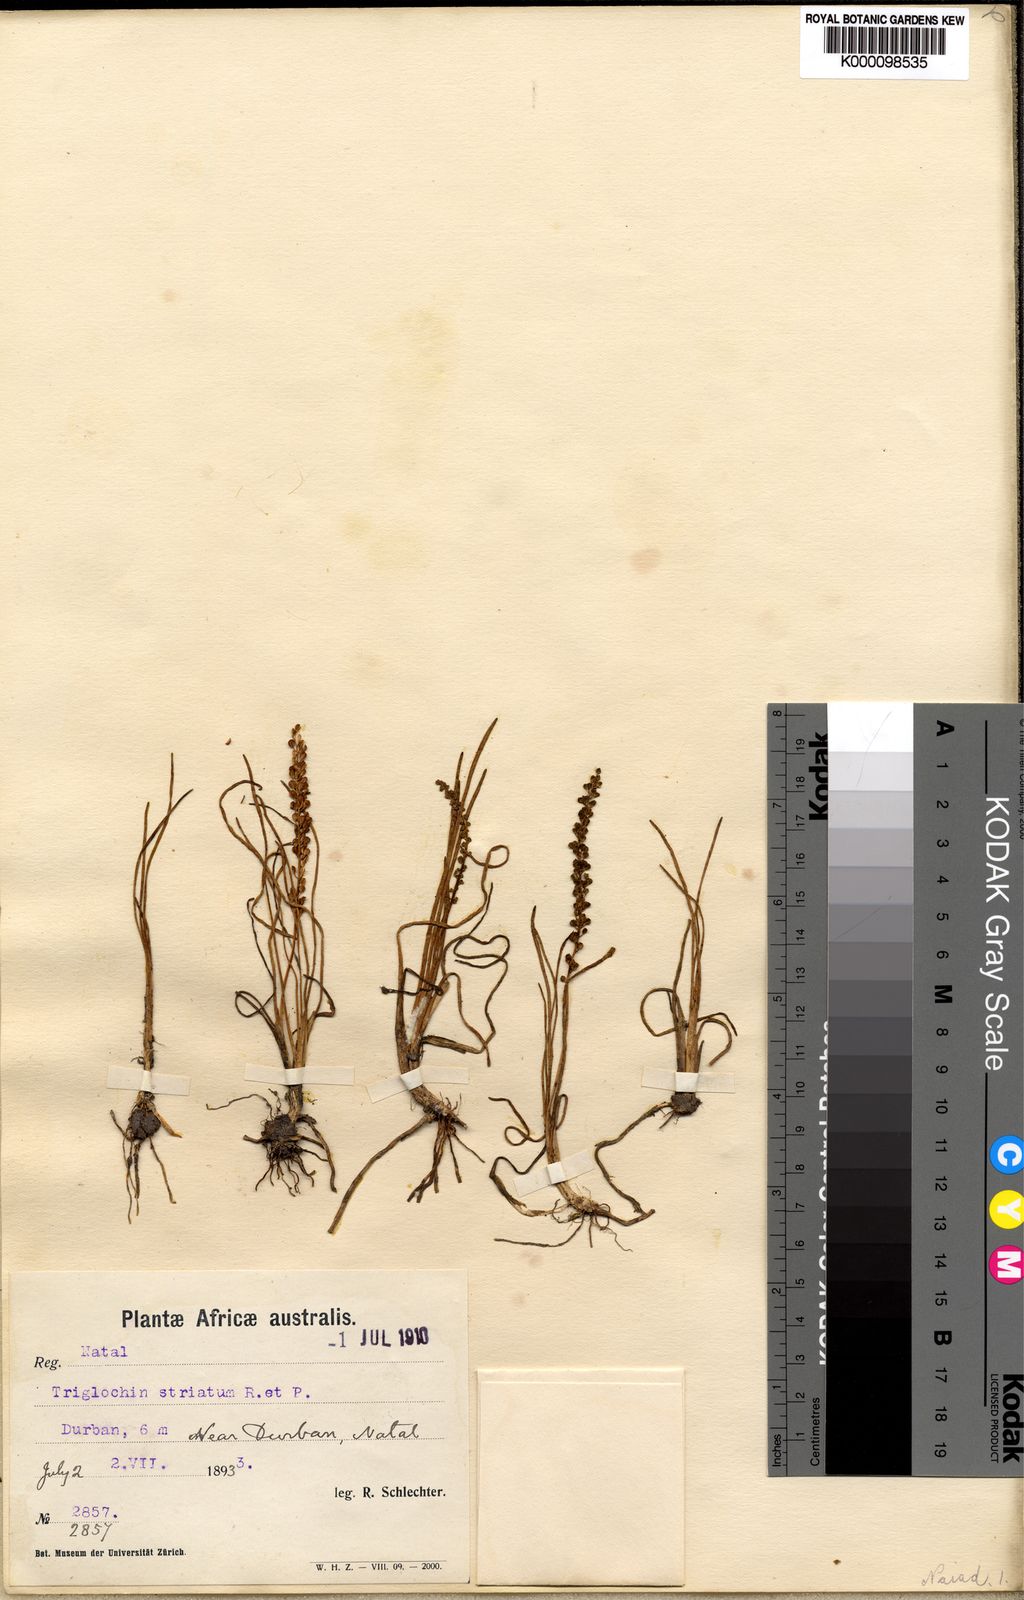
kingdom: Plantae
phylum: Tracheophyta
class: Liliopsida
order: Alismatales
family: Juncaginaceae
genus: Triglochin
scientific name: Triglochin striata
